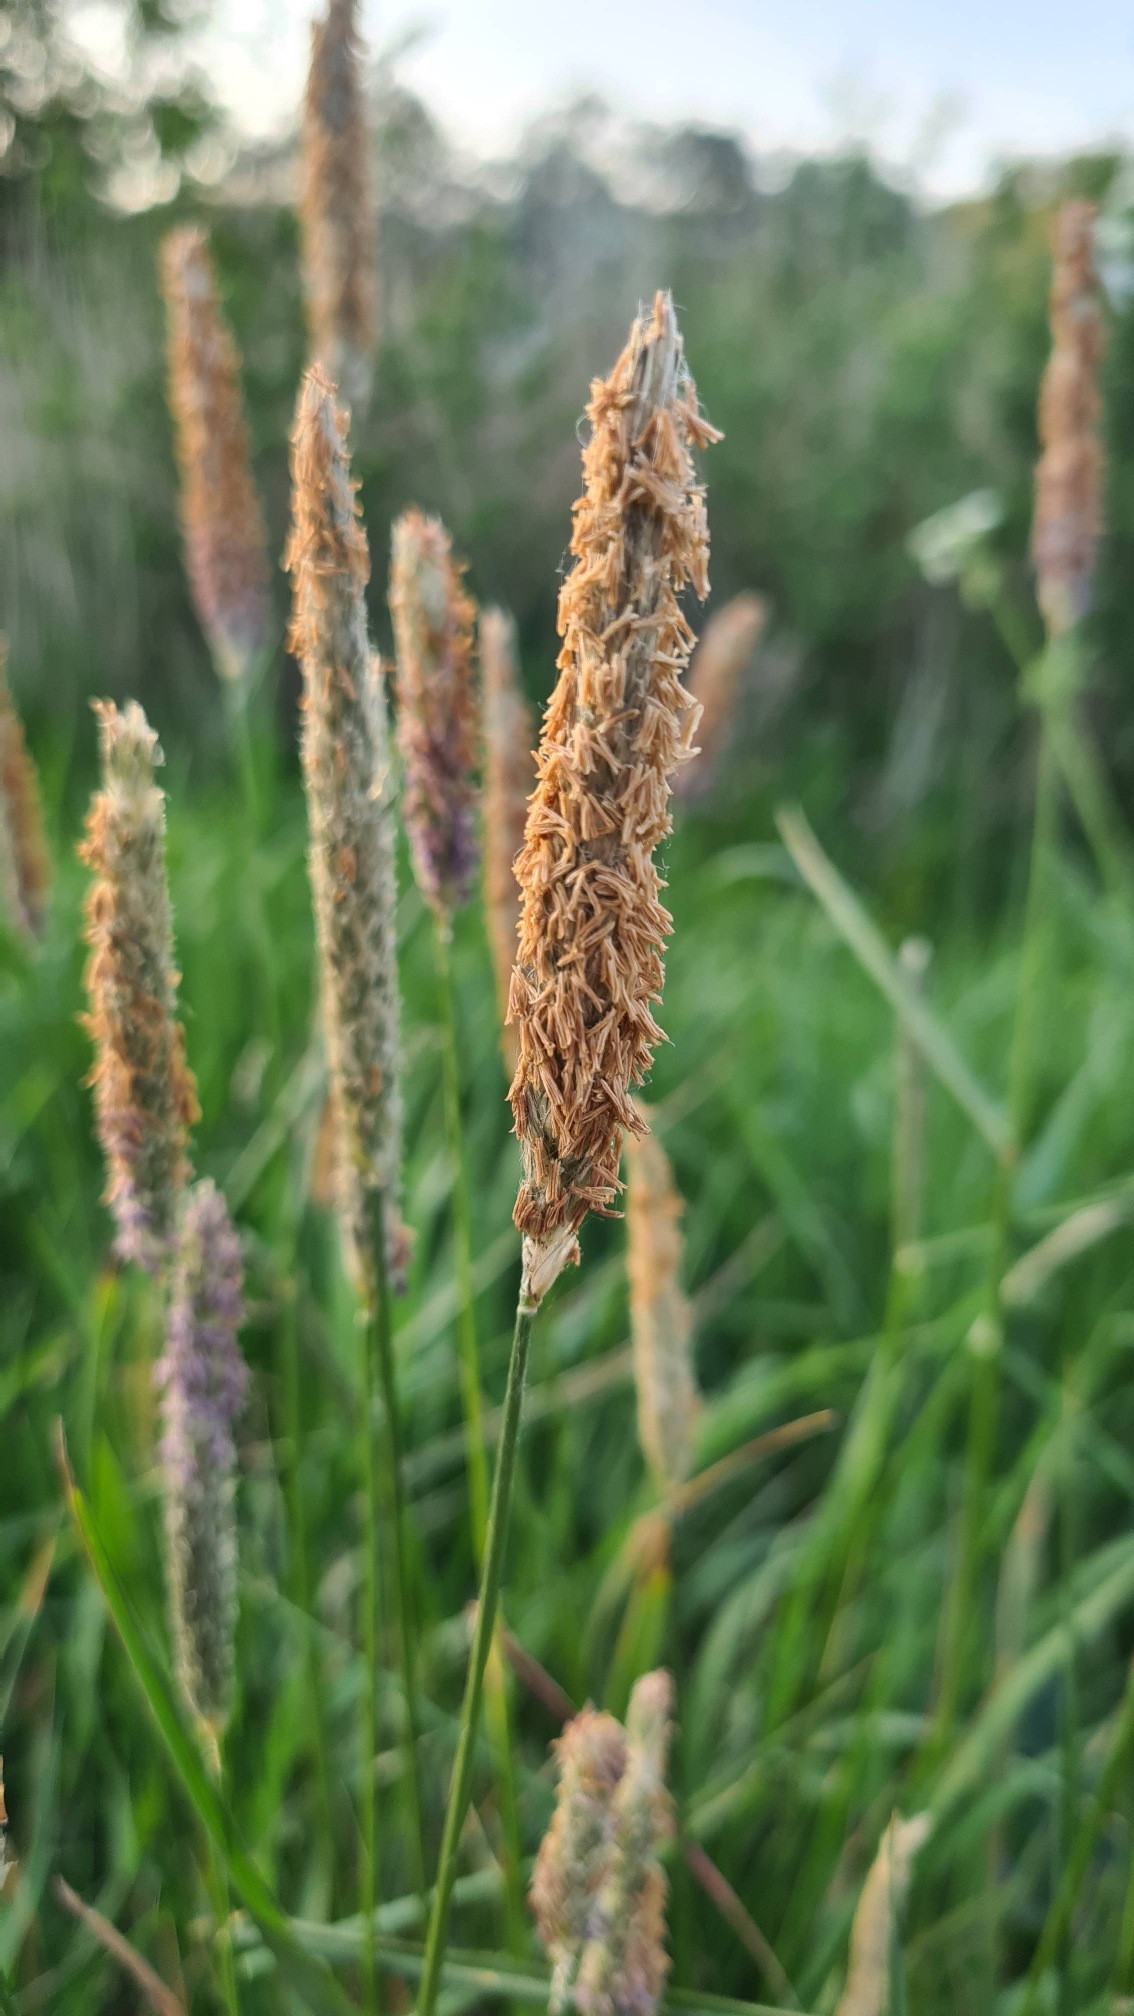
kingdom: Plantae
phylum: Tracheophyta
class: Liliopsida
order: Poales
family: Poaceae
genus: Alopecurus
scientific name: Alopecurus pratensis
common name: Eng-rævehale
